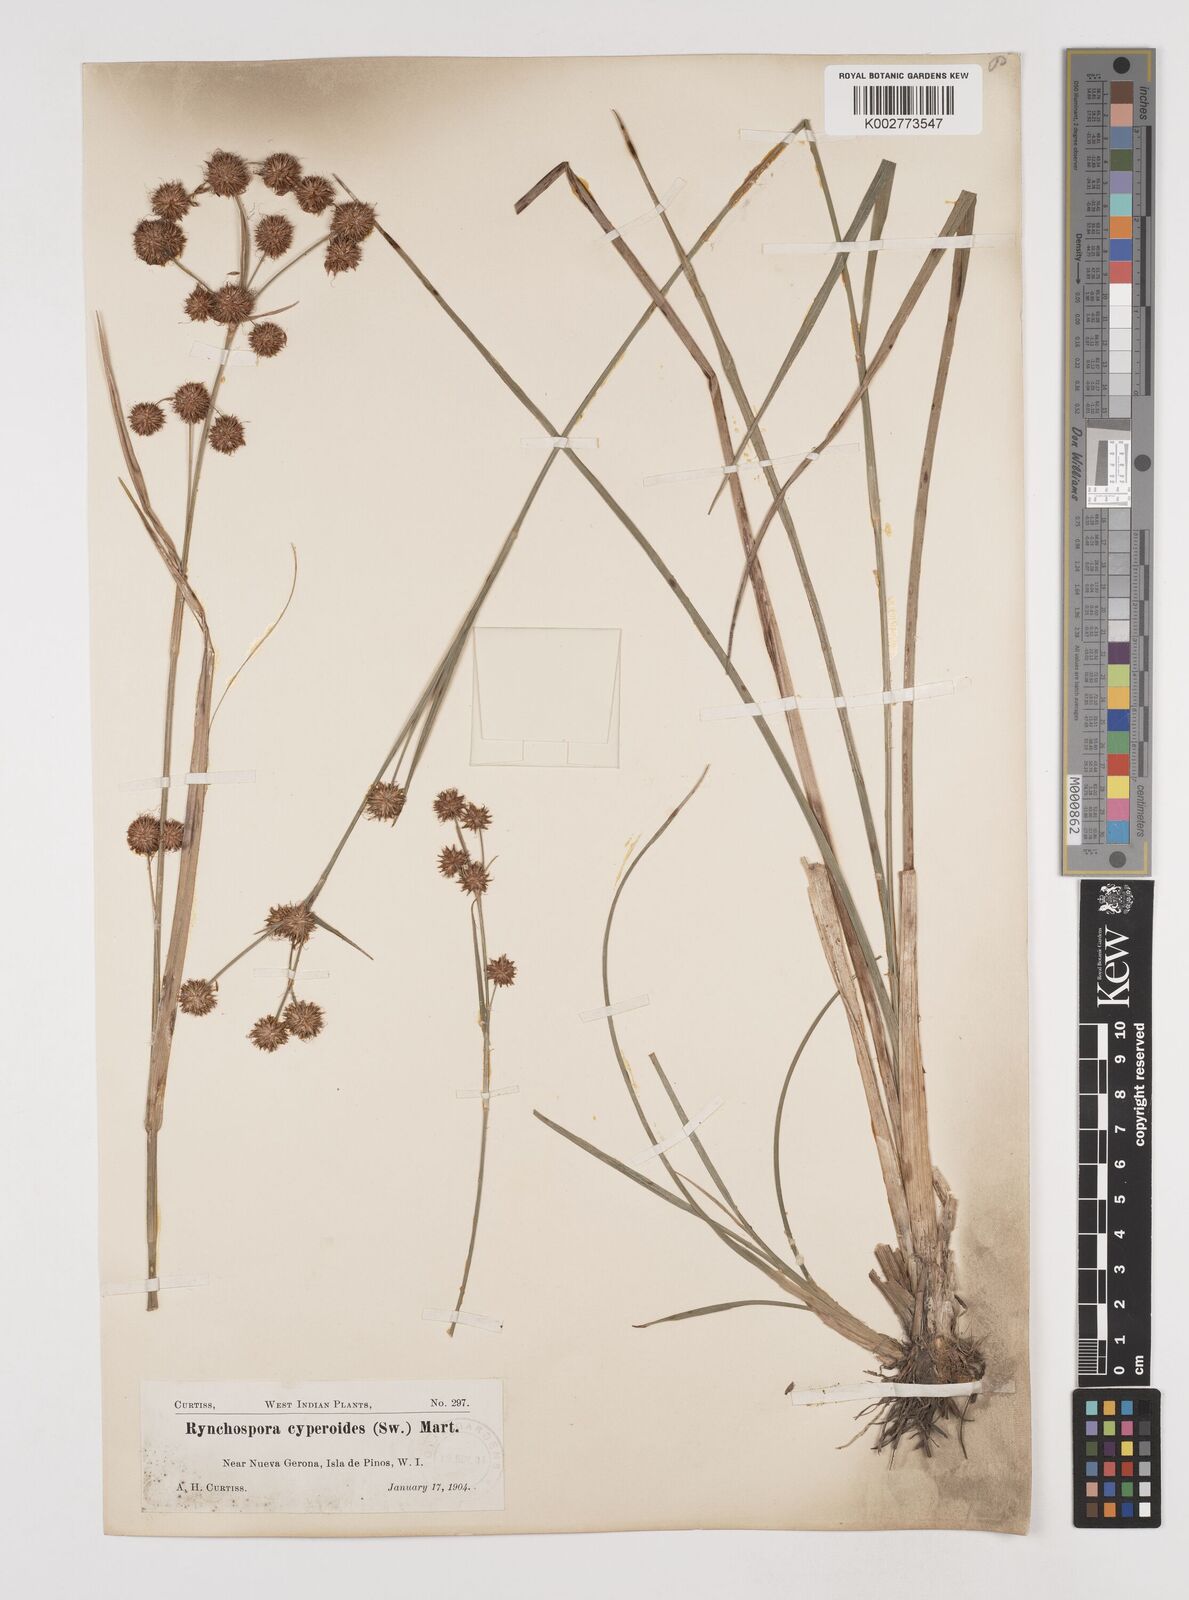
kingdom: Plantae
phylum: Tracheophyta
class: Liliopsida
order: Poales
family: Cyperaceae
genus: Rhynchospora
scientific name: Rhynchospora holoschoenoides
